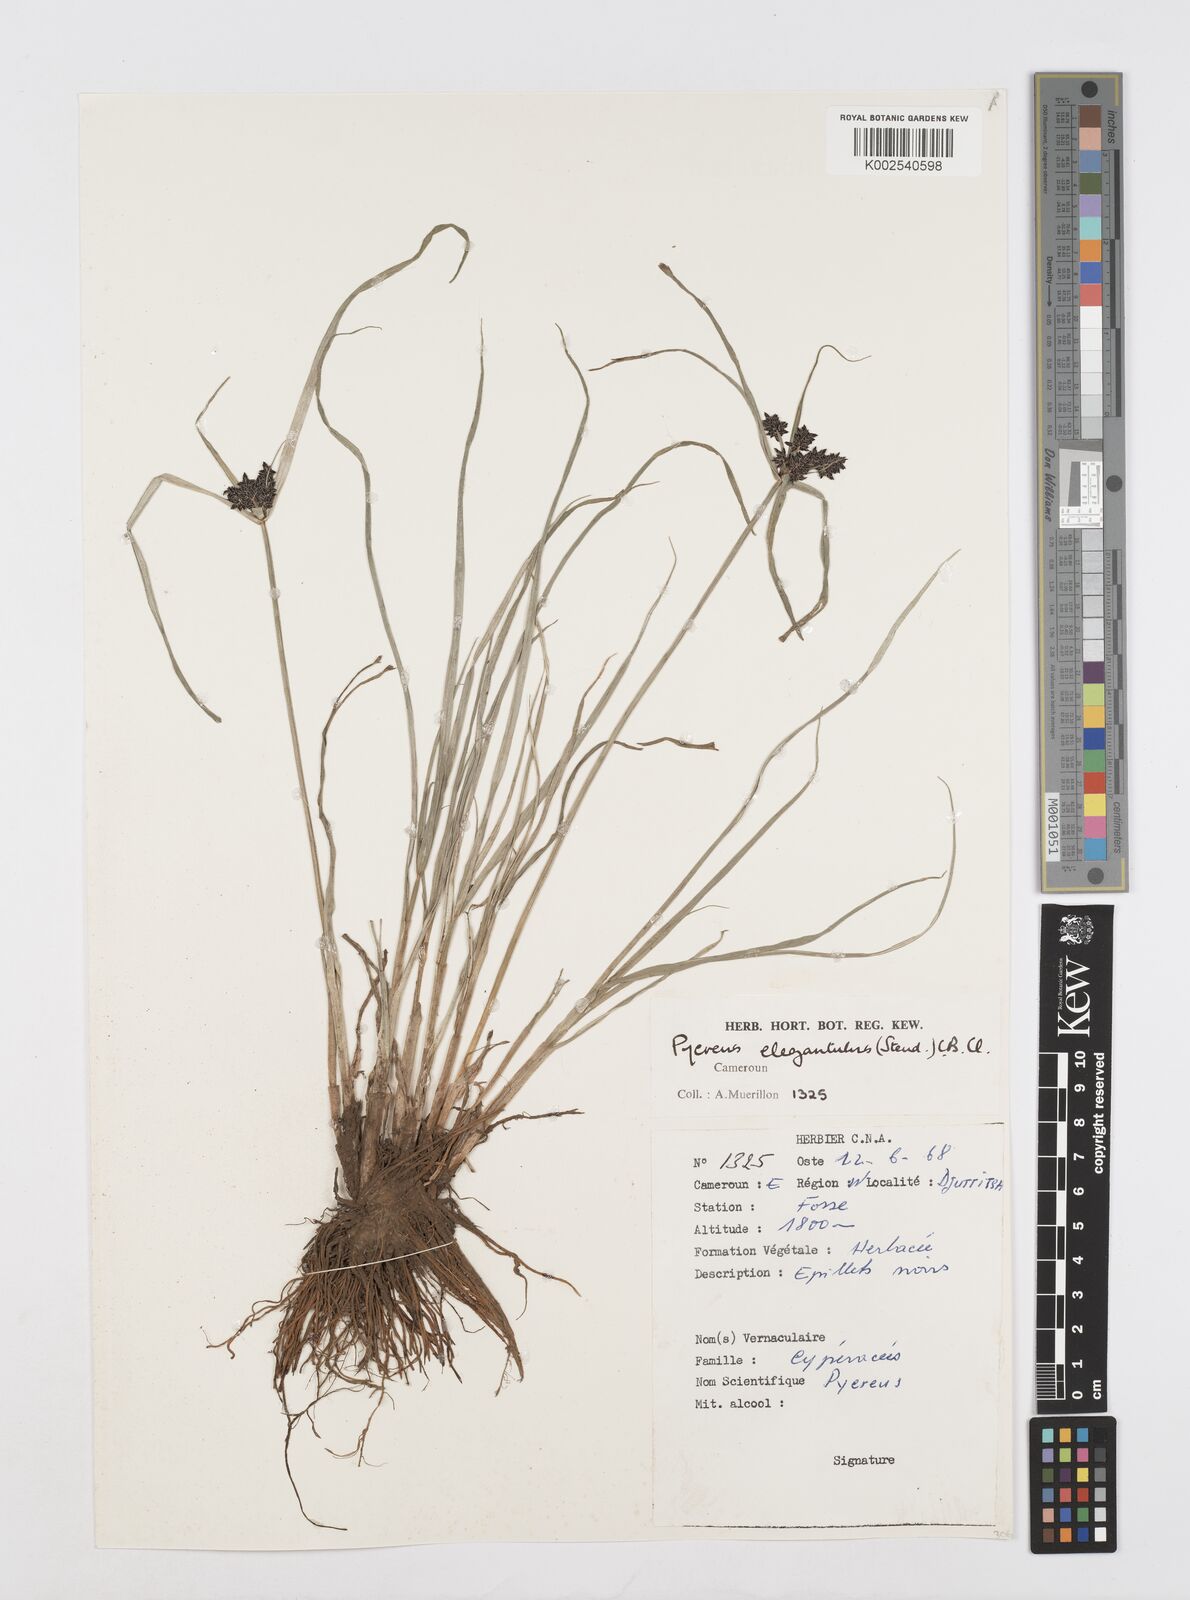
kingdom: Plantae
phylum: Tracheophyta
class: Liliopsida
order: Poales
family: Cyperaceae
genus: Cyperus
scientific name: Cyperus elegantulus
